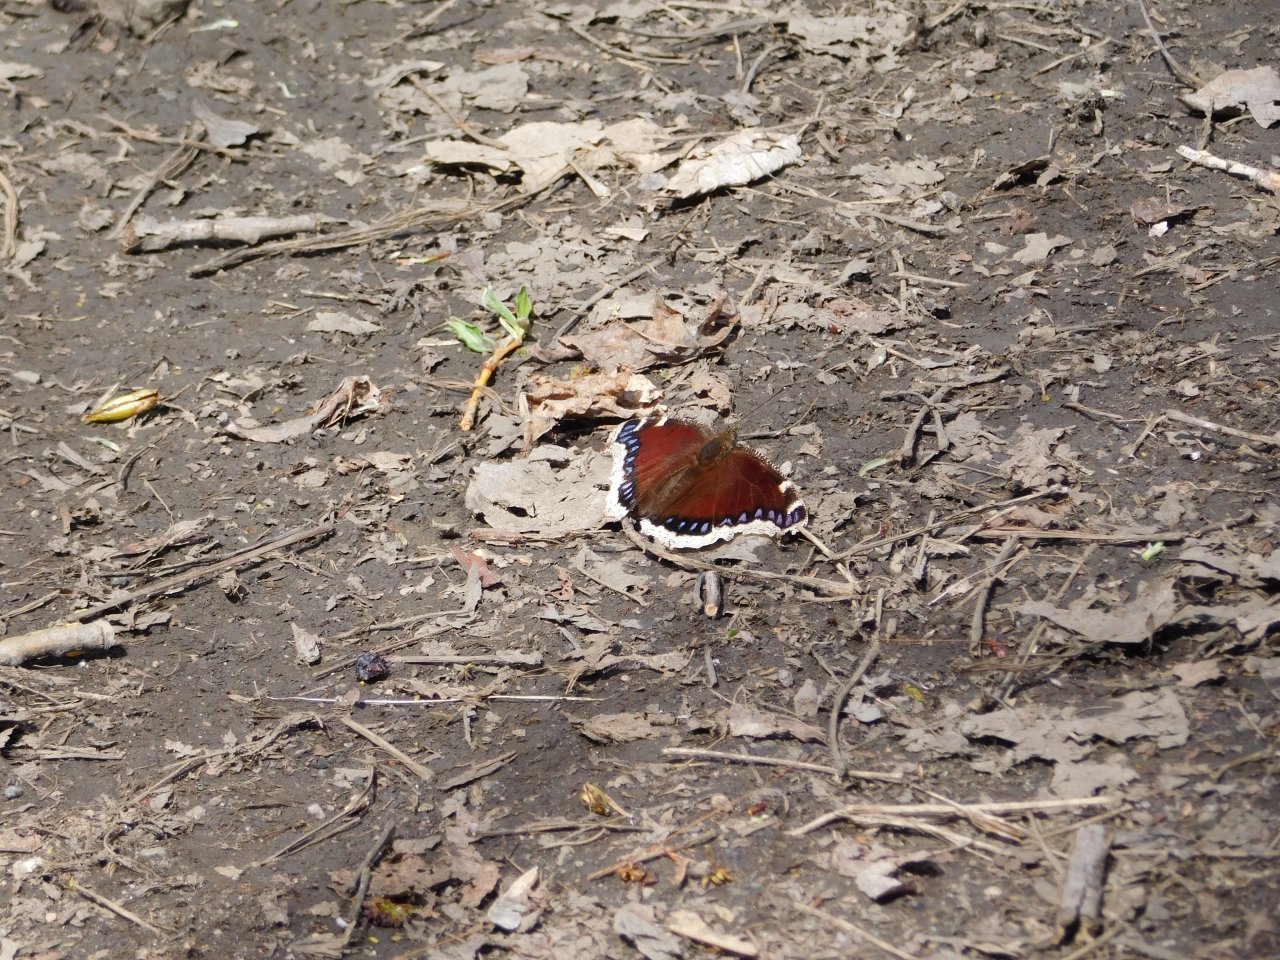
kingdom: Animalia
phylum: Arthropoda
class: Insecta
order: Lepidoptera
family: Nymphalidae
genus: Nymphalis
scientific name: Nymphalis antiopa
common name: Mourning Cloak
